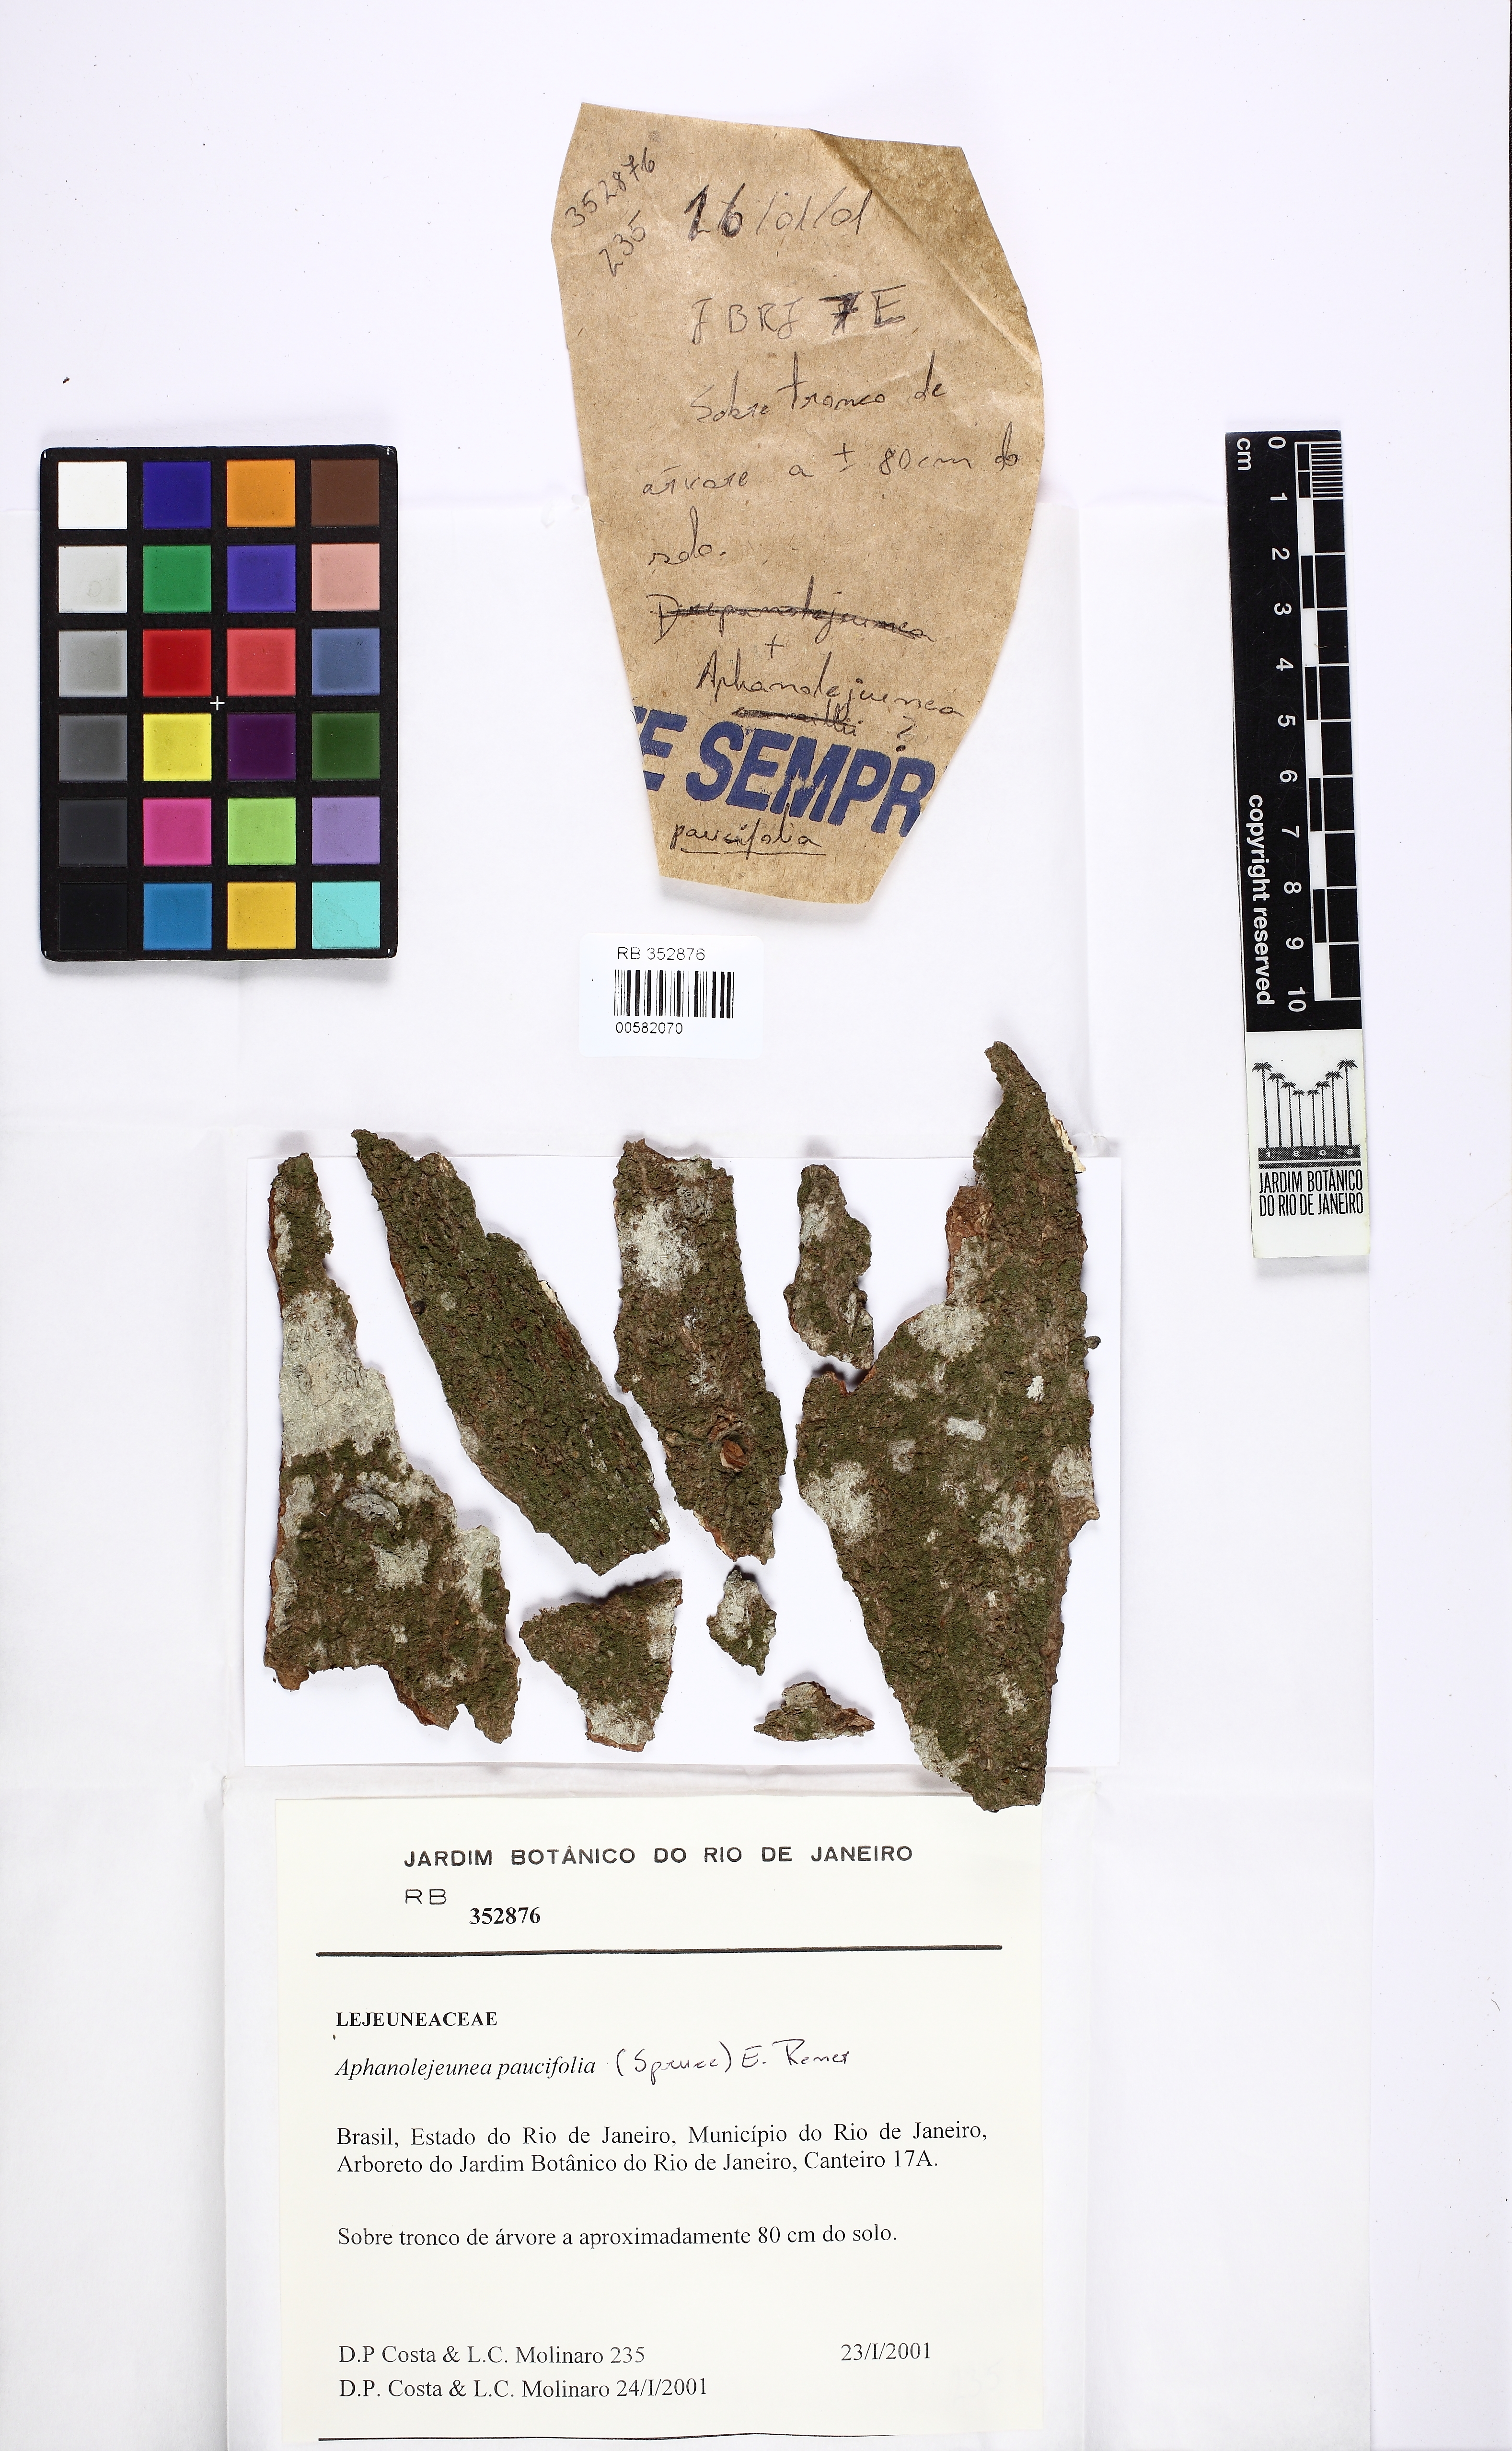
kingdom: Plantae
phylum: Marchantiophyta
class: Jungermanniopsida
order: Porellales
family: Lejeuneaceae
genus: Cololejeunea
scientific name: Cololejeunea paucifolia
